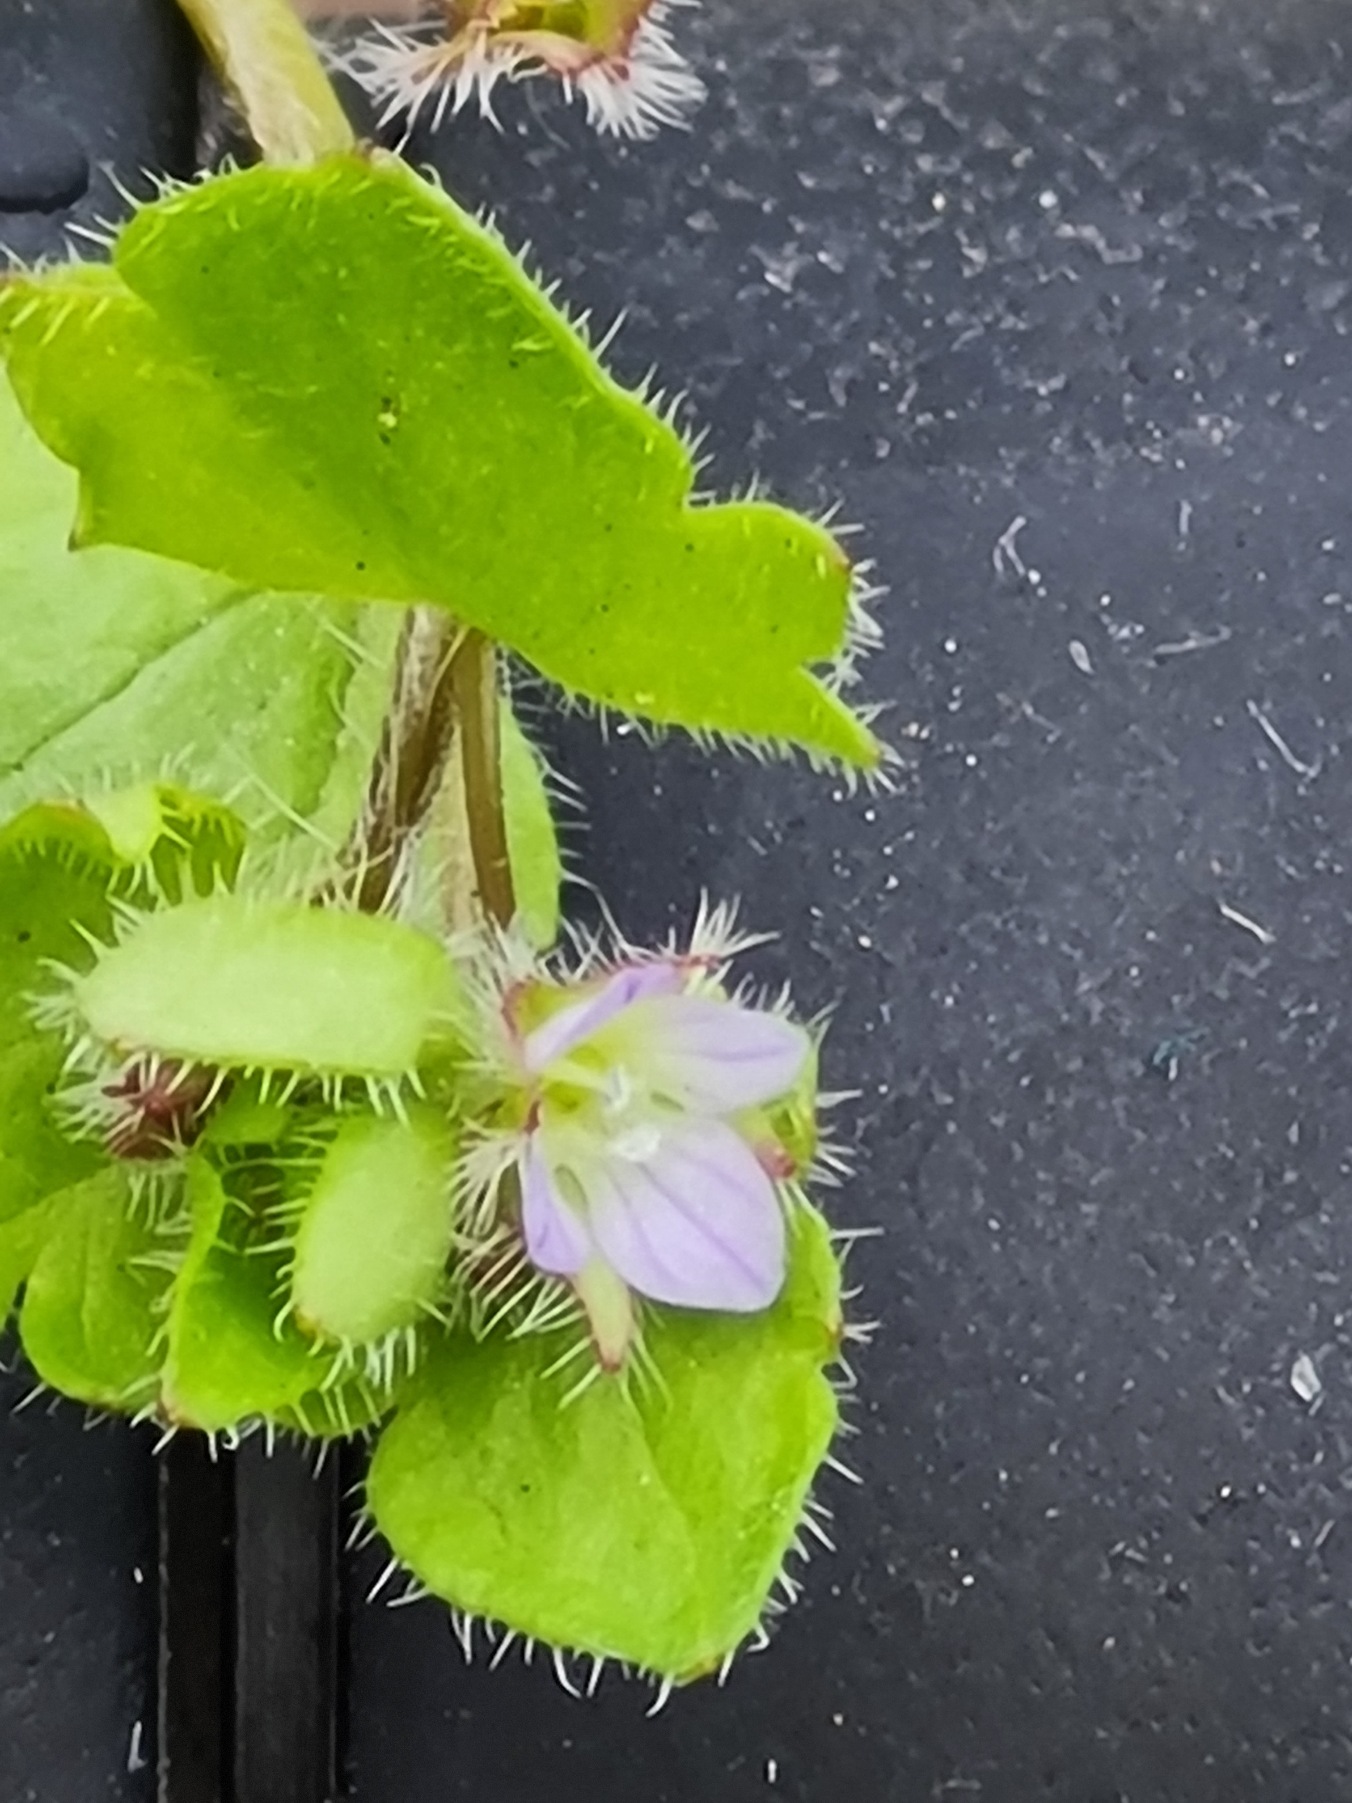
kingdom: Plantae
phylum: Tracheophyta
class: Magnoliopsida
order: Lamiales
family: Plantaginaceae
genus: Veronica
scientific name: Veronica sublobata
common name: Krat-ærenpris
